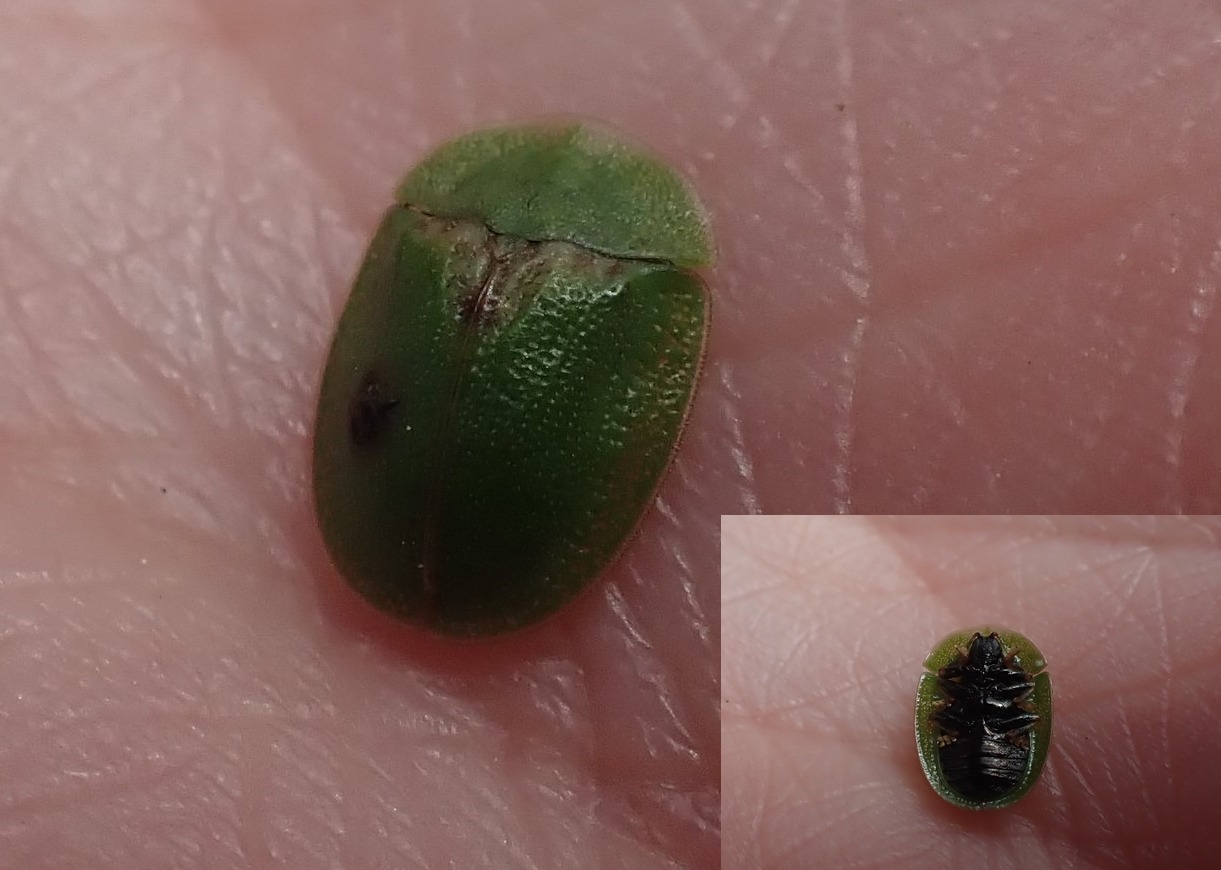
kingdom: Animalia
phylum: Arthropoda
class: Insecta
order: Coleoptera
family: Chrysomelidae
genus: Cassida
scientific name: Cassida rubiginosa
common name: Tidselskjoldbille
